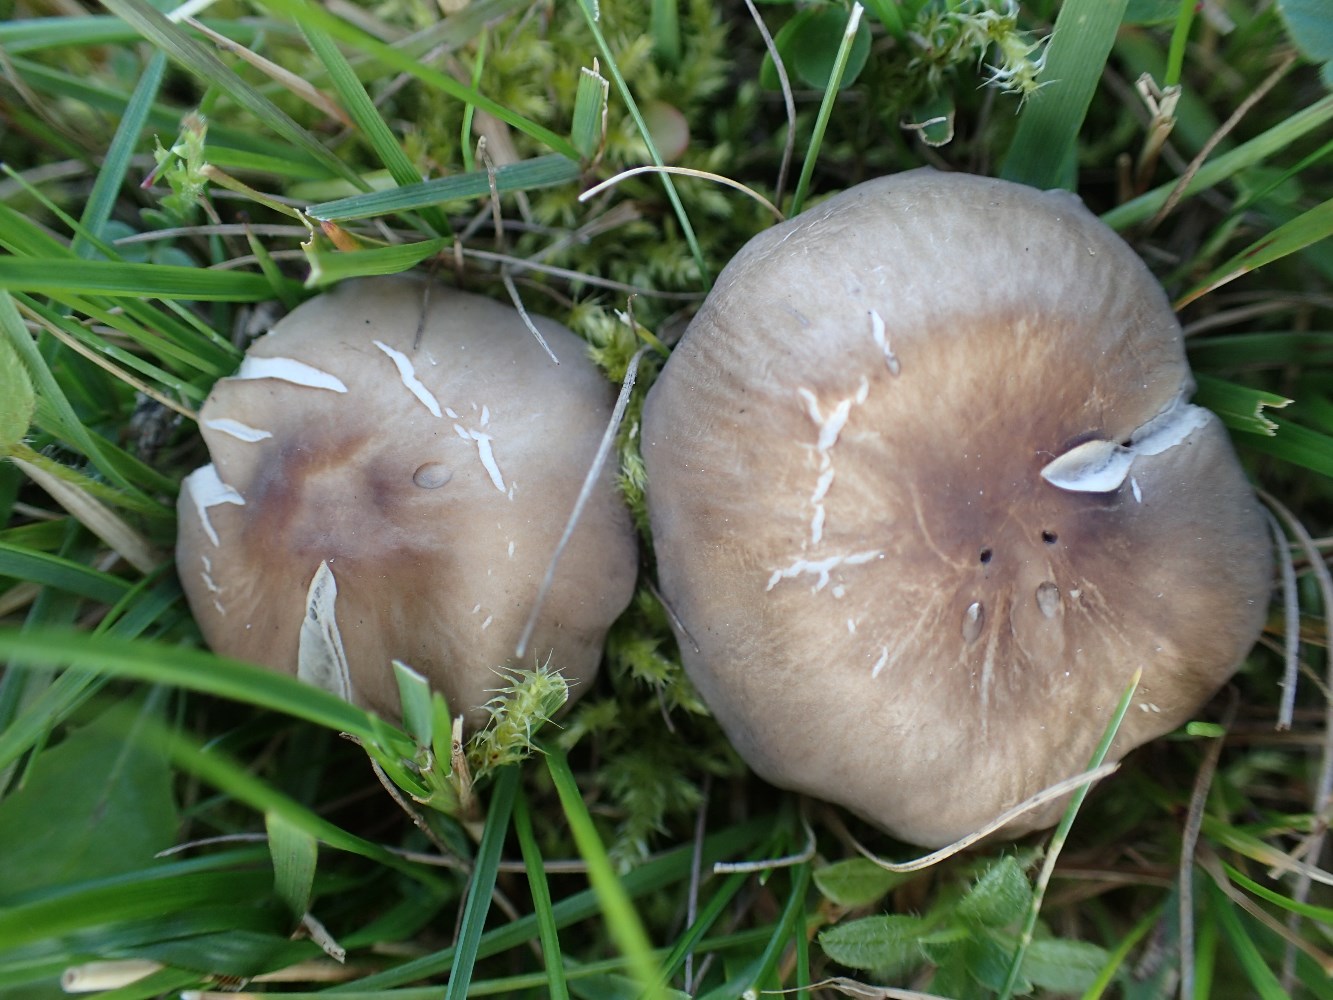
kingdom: Fungi
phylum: Basidiomycota
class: Agaricomycetes
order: Agaricales
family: Tricholomataceae
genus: Dermoloma
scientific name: Dermoloma cuneifolium
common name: eng-nonnehat
